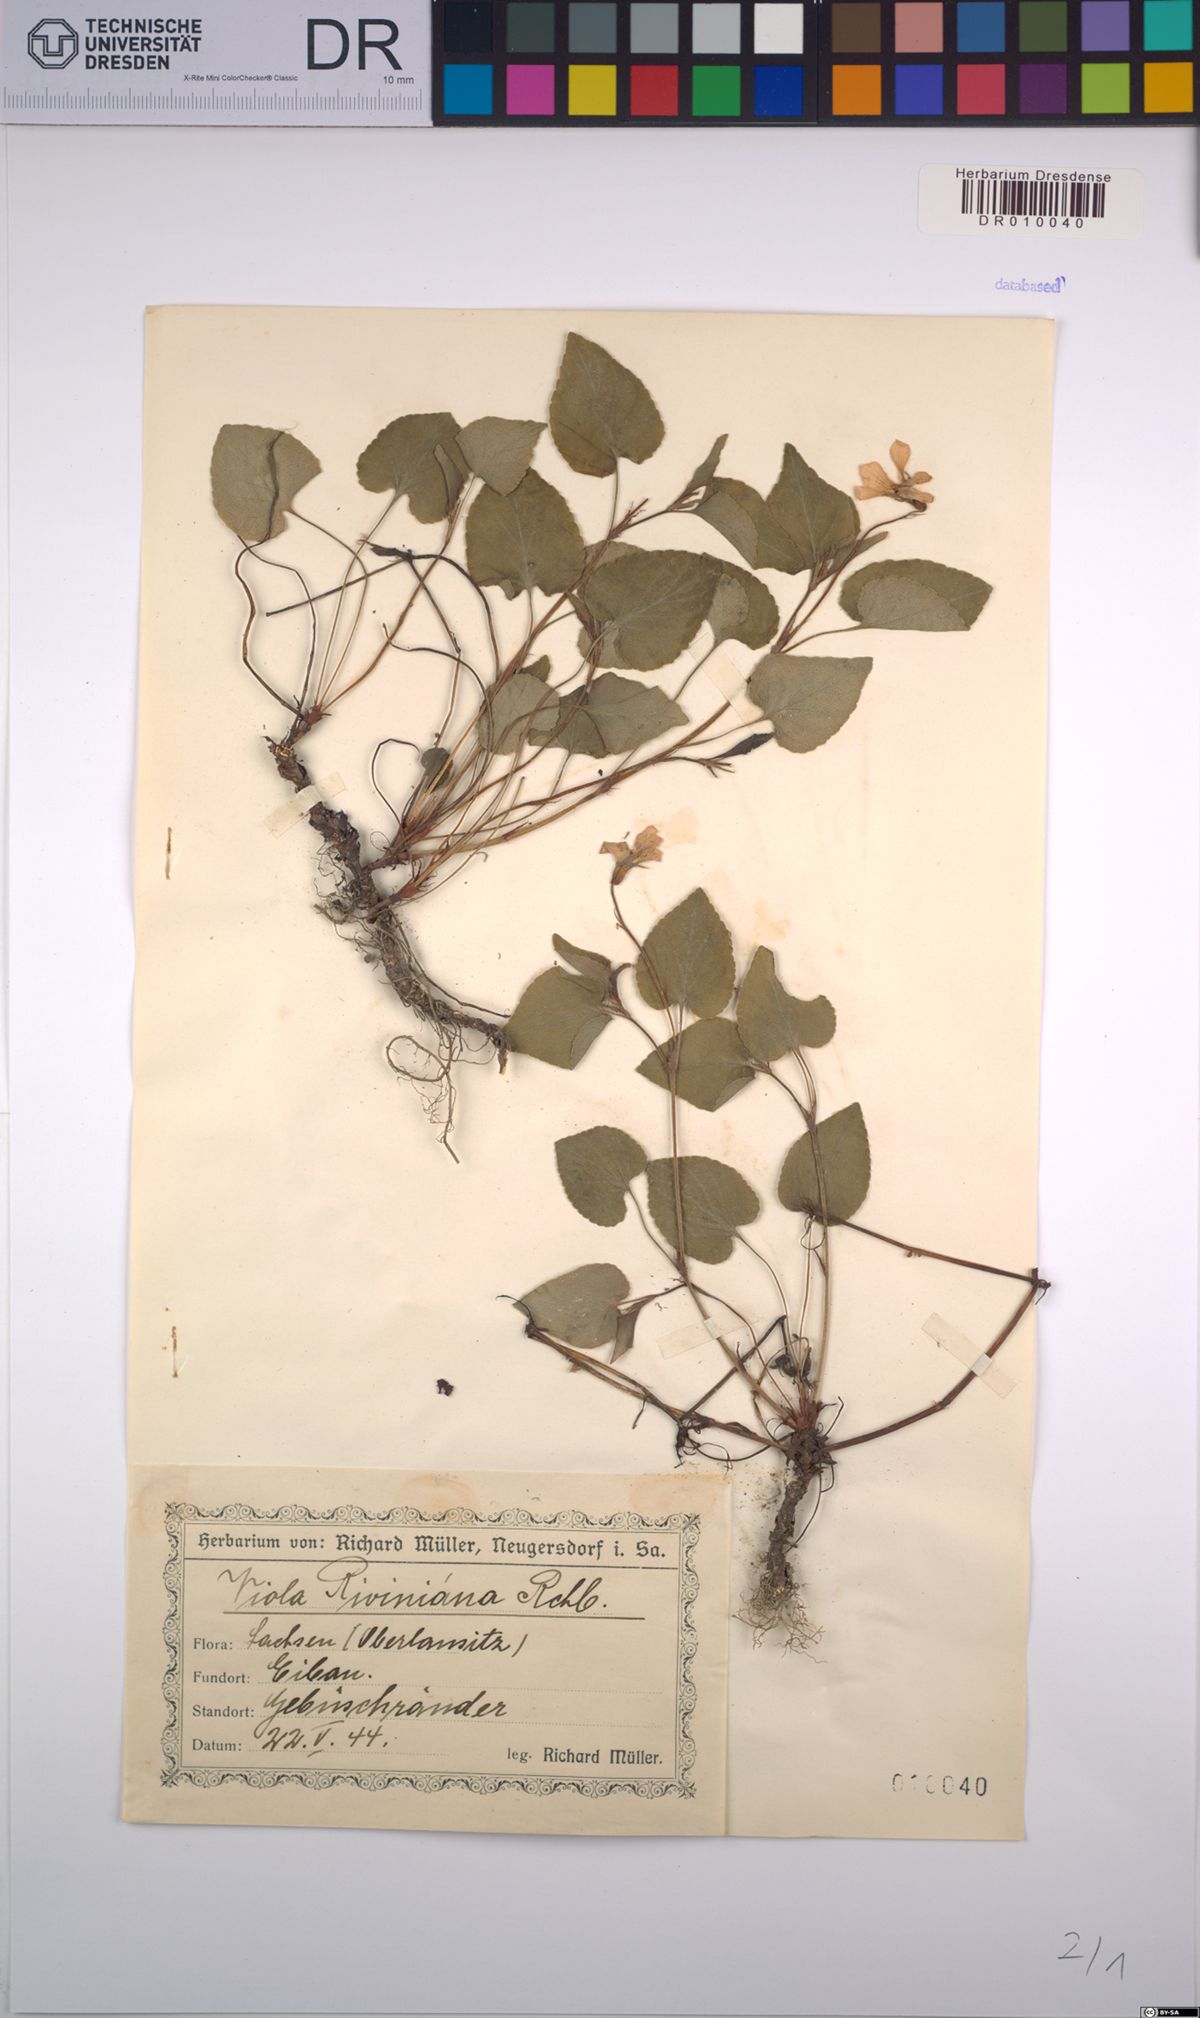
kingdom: Plantae
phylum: Tracheophyta
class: Magnoliopsida
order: Malpighiales
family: Violaceae
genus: Viola
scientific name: Viola riviniana
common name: Common dog-violet
